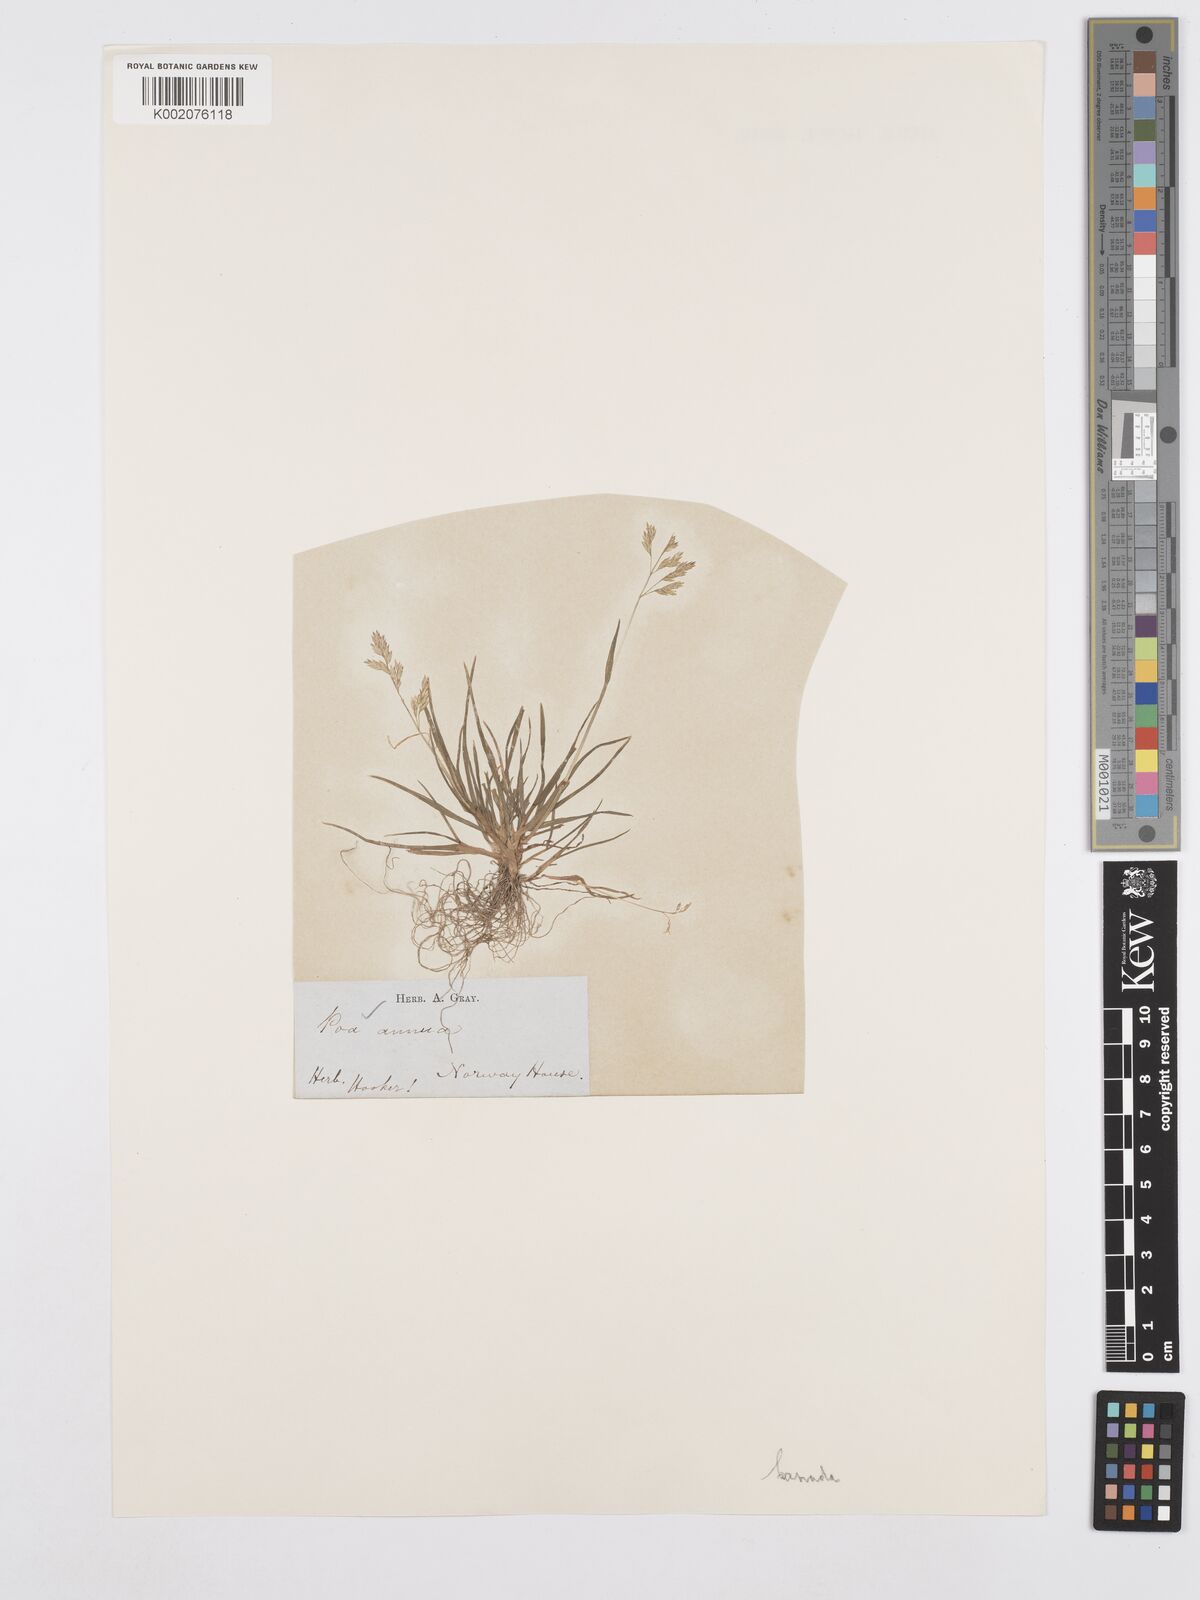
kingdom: Plantae
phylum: Tracheophyta
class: Liliopsida
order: Poales
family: Poaceae
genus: Poa
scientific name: Poa annua
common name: Annual bluegrass
